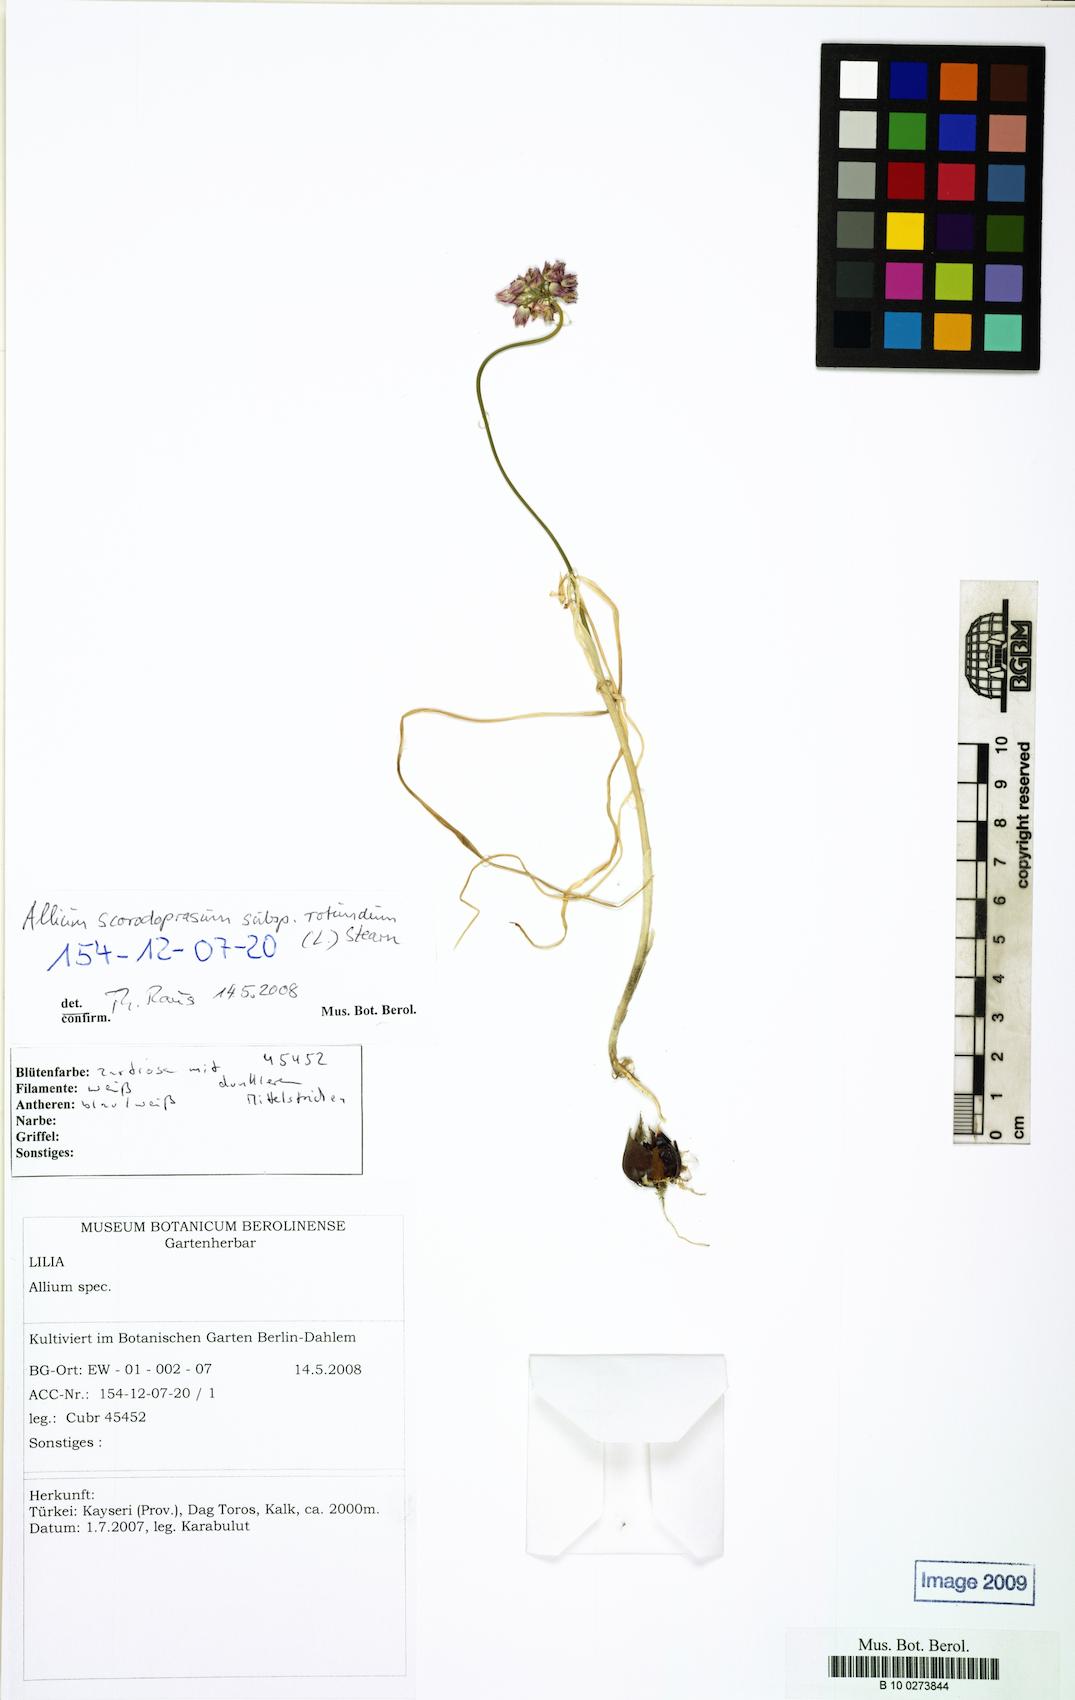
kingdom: Plantae
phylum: Tracheophyta
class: Liliopsida
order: Asparagales
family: Amaryllidaceae
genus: Allium
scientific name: Allium rotundum
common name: Sand leek
